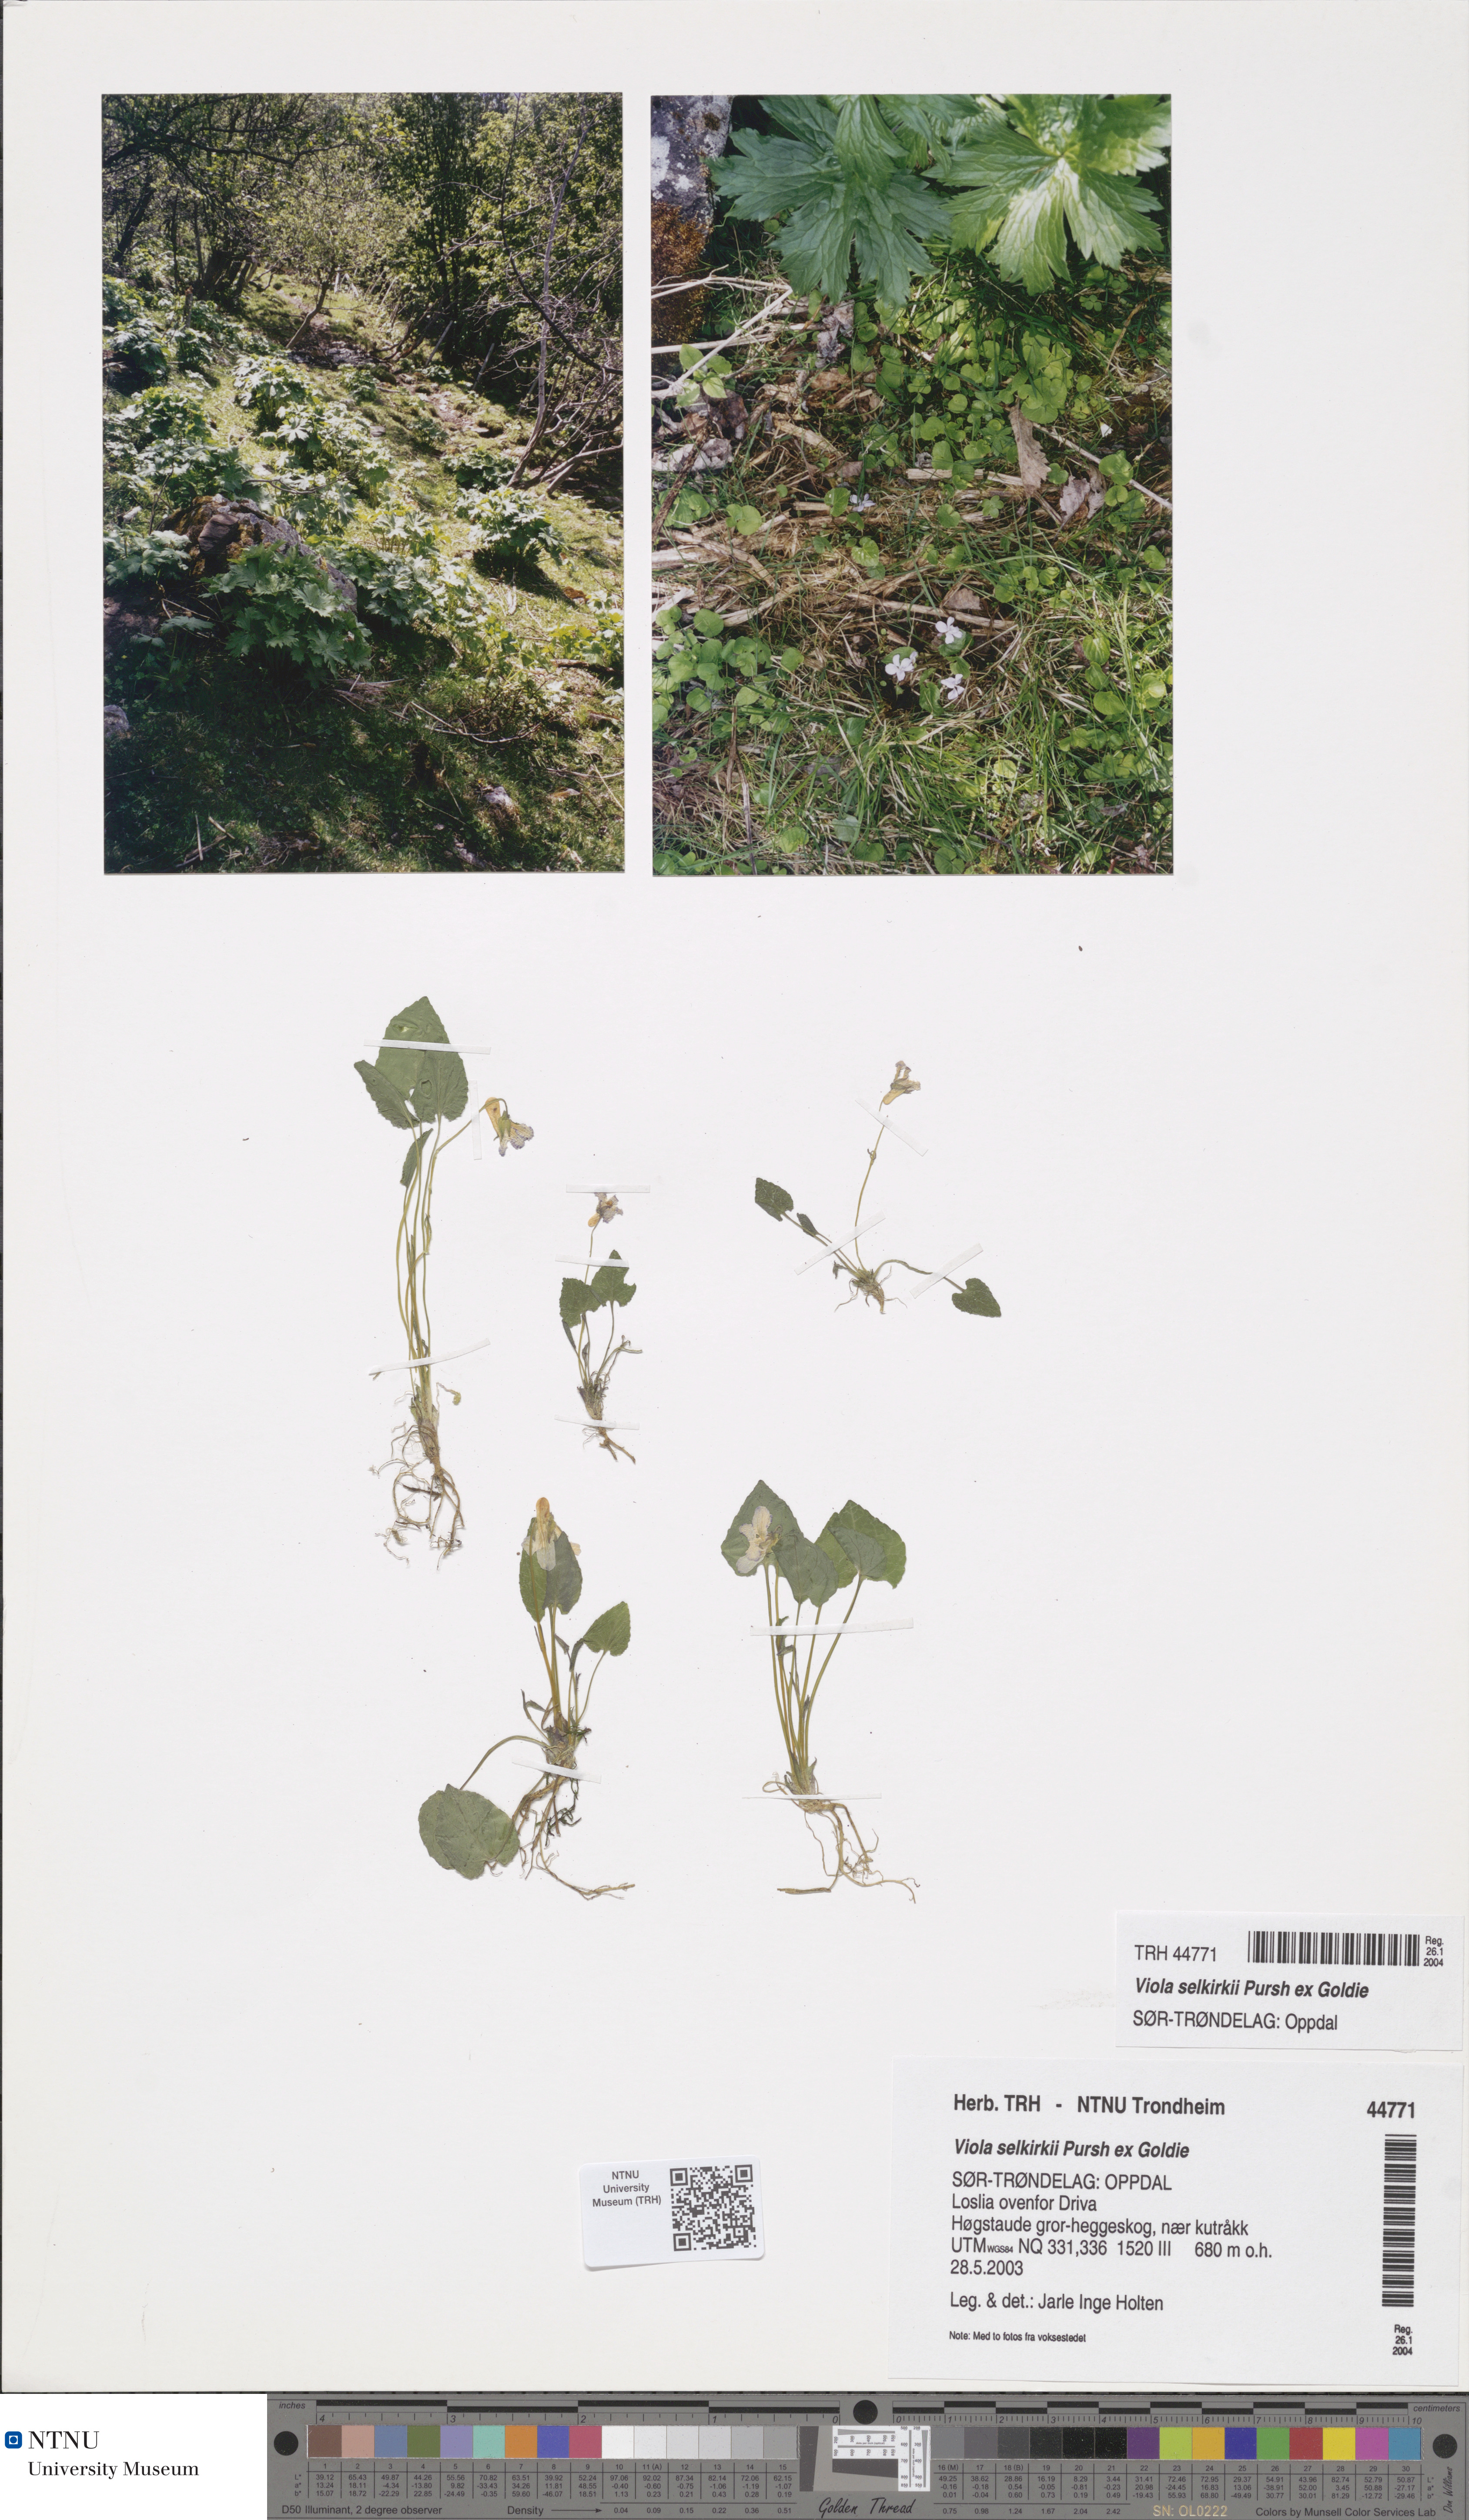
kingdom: Plantae
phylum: Tracheophyta
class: Magnoliopsida
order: Malpighiales
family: Violaceae
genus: Viola
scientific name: Viola selkirkii
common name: Selkirk's violet
